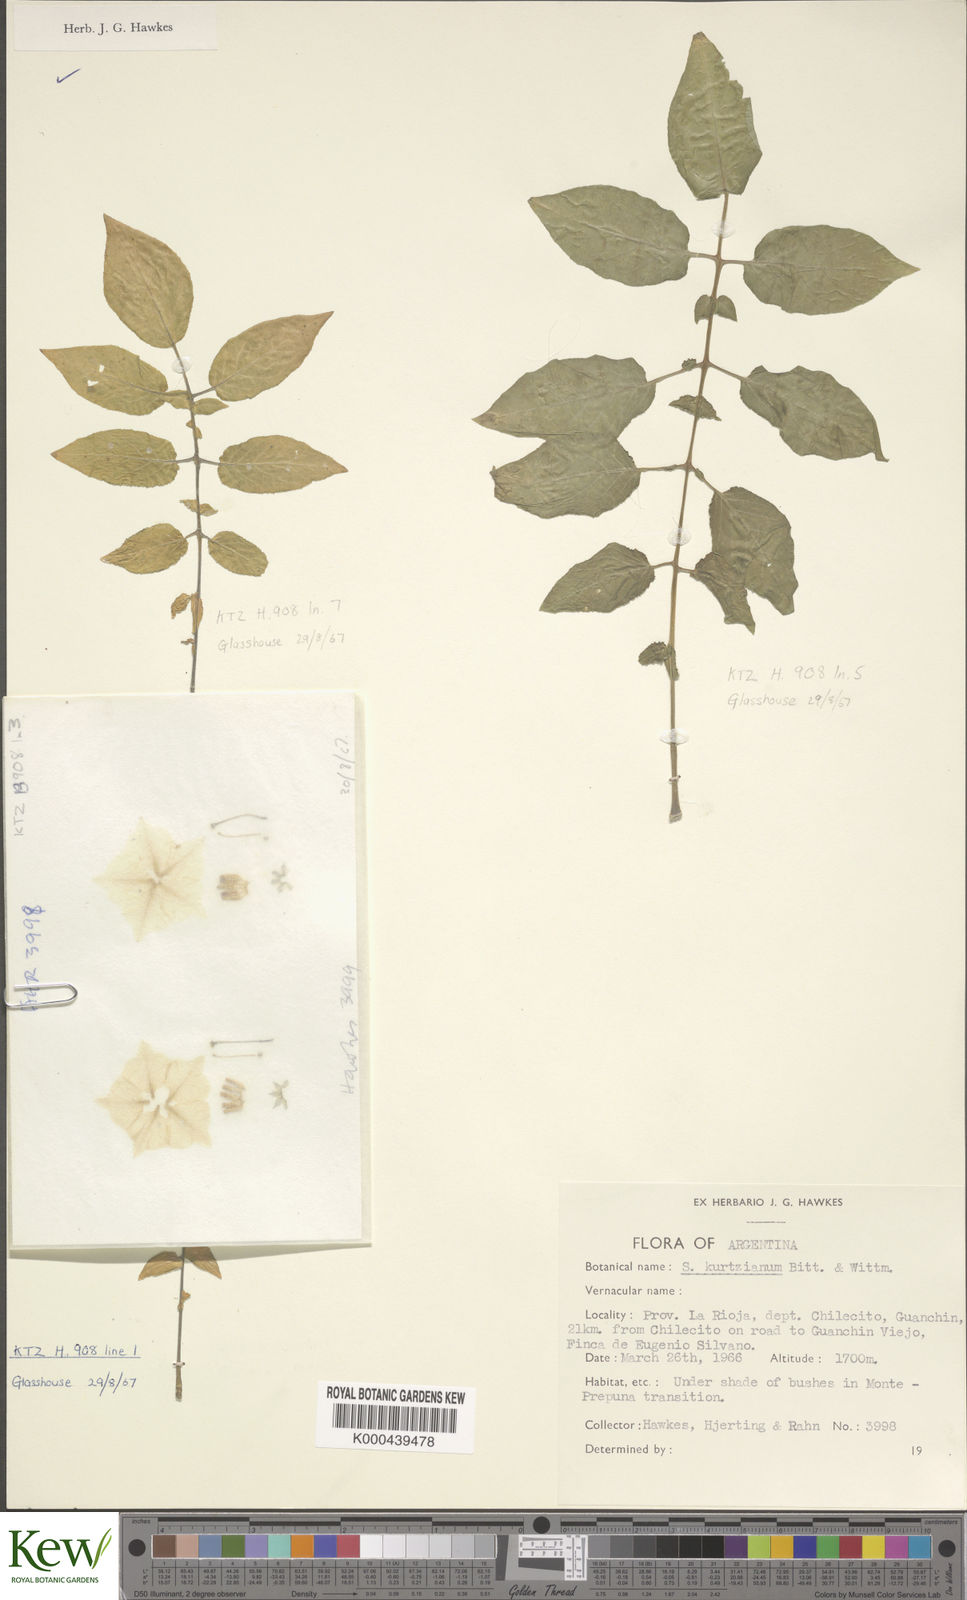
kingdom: Plantae
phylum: Tracheophyta
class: Magnoliopsida
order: Solanales
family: Solanaceae
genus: Solanum
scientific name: Solanum kurtzianum
